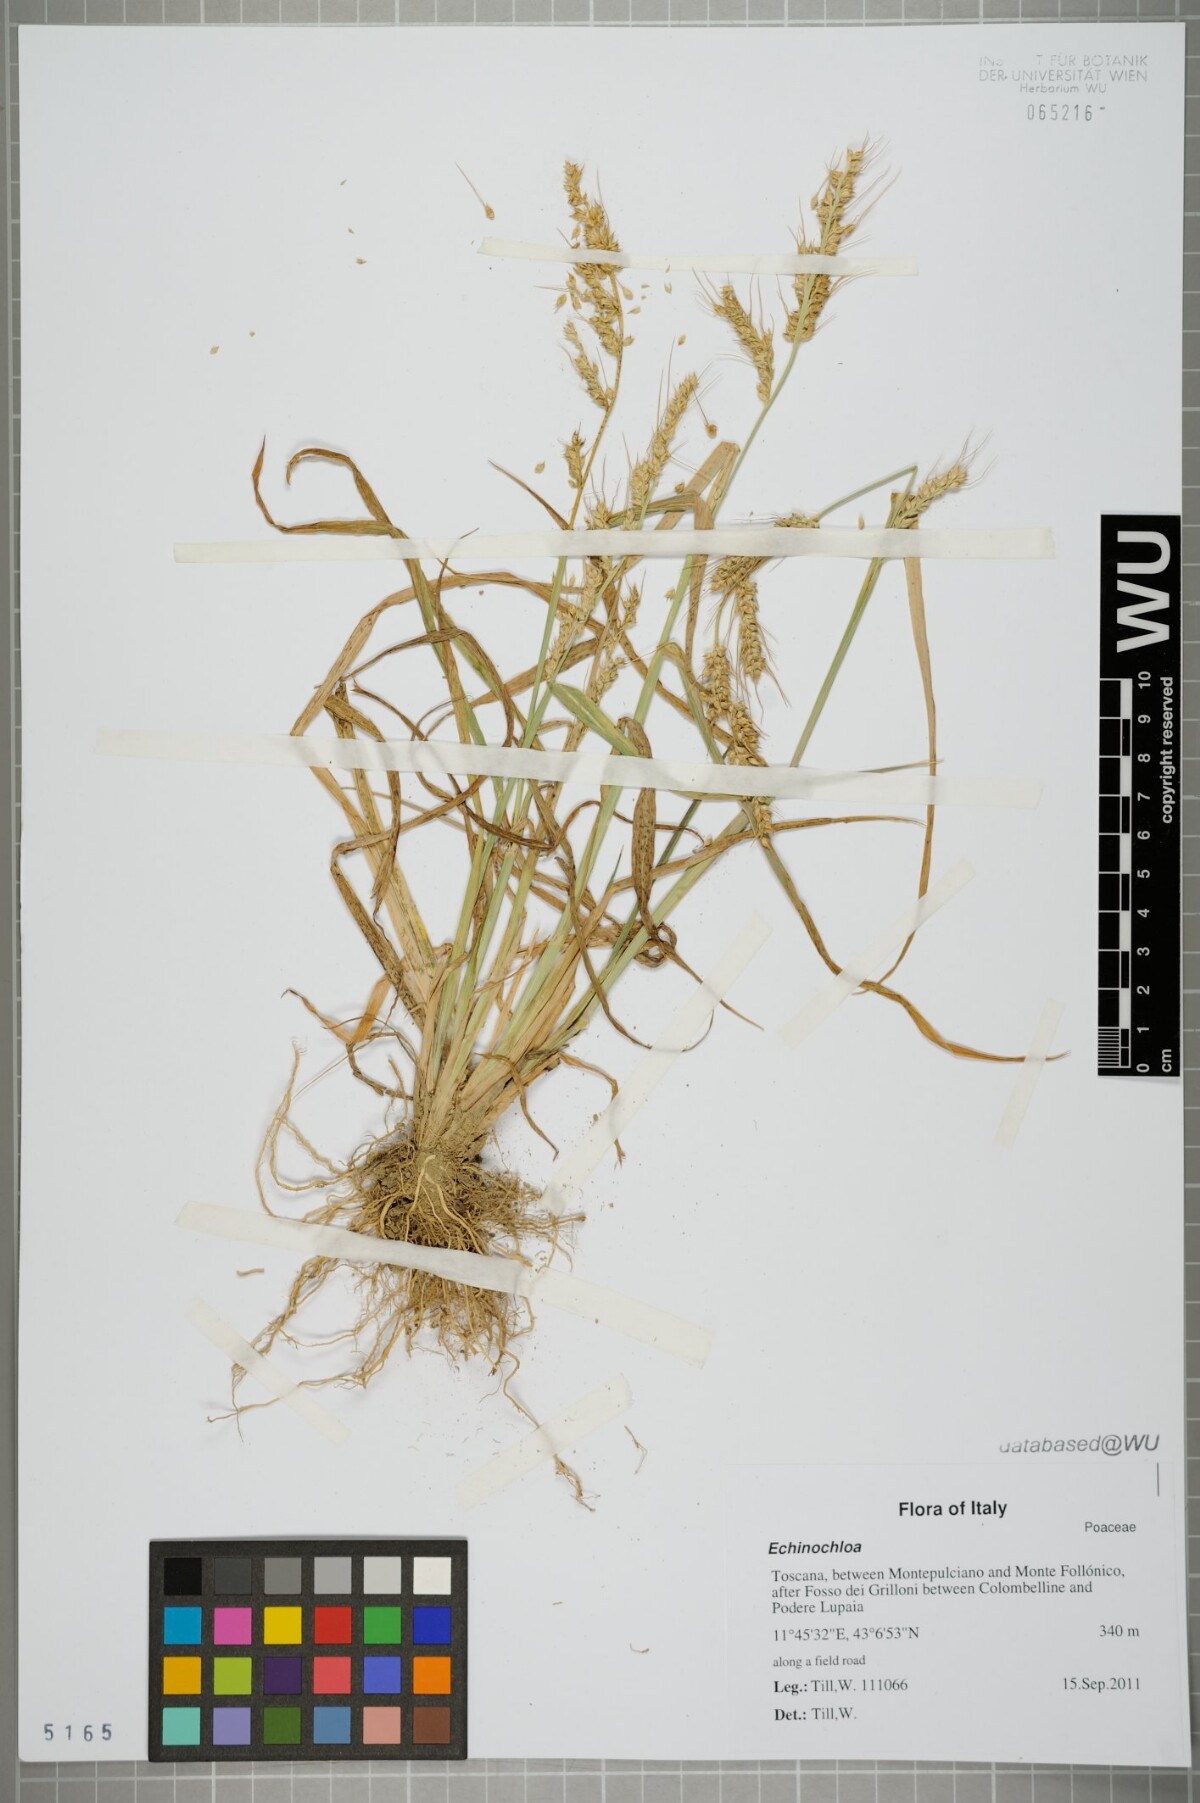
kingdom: Plantae
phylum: Tracheophyta
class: Liliopsida
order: Poales
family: Poaceae
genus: Echinochloa
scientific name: Echinochloa
